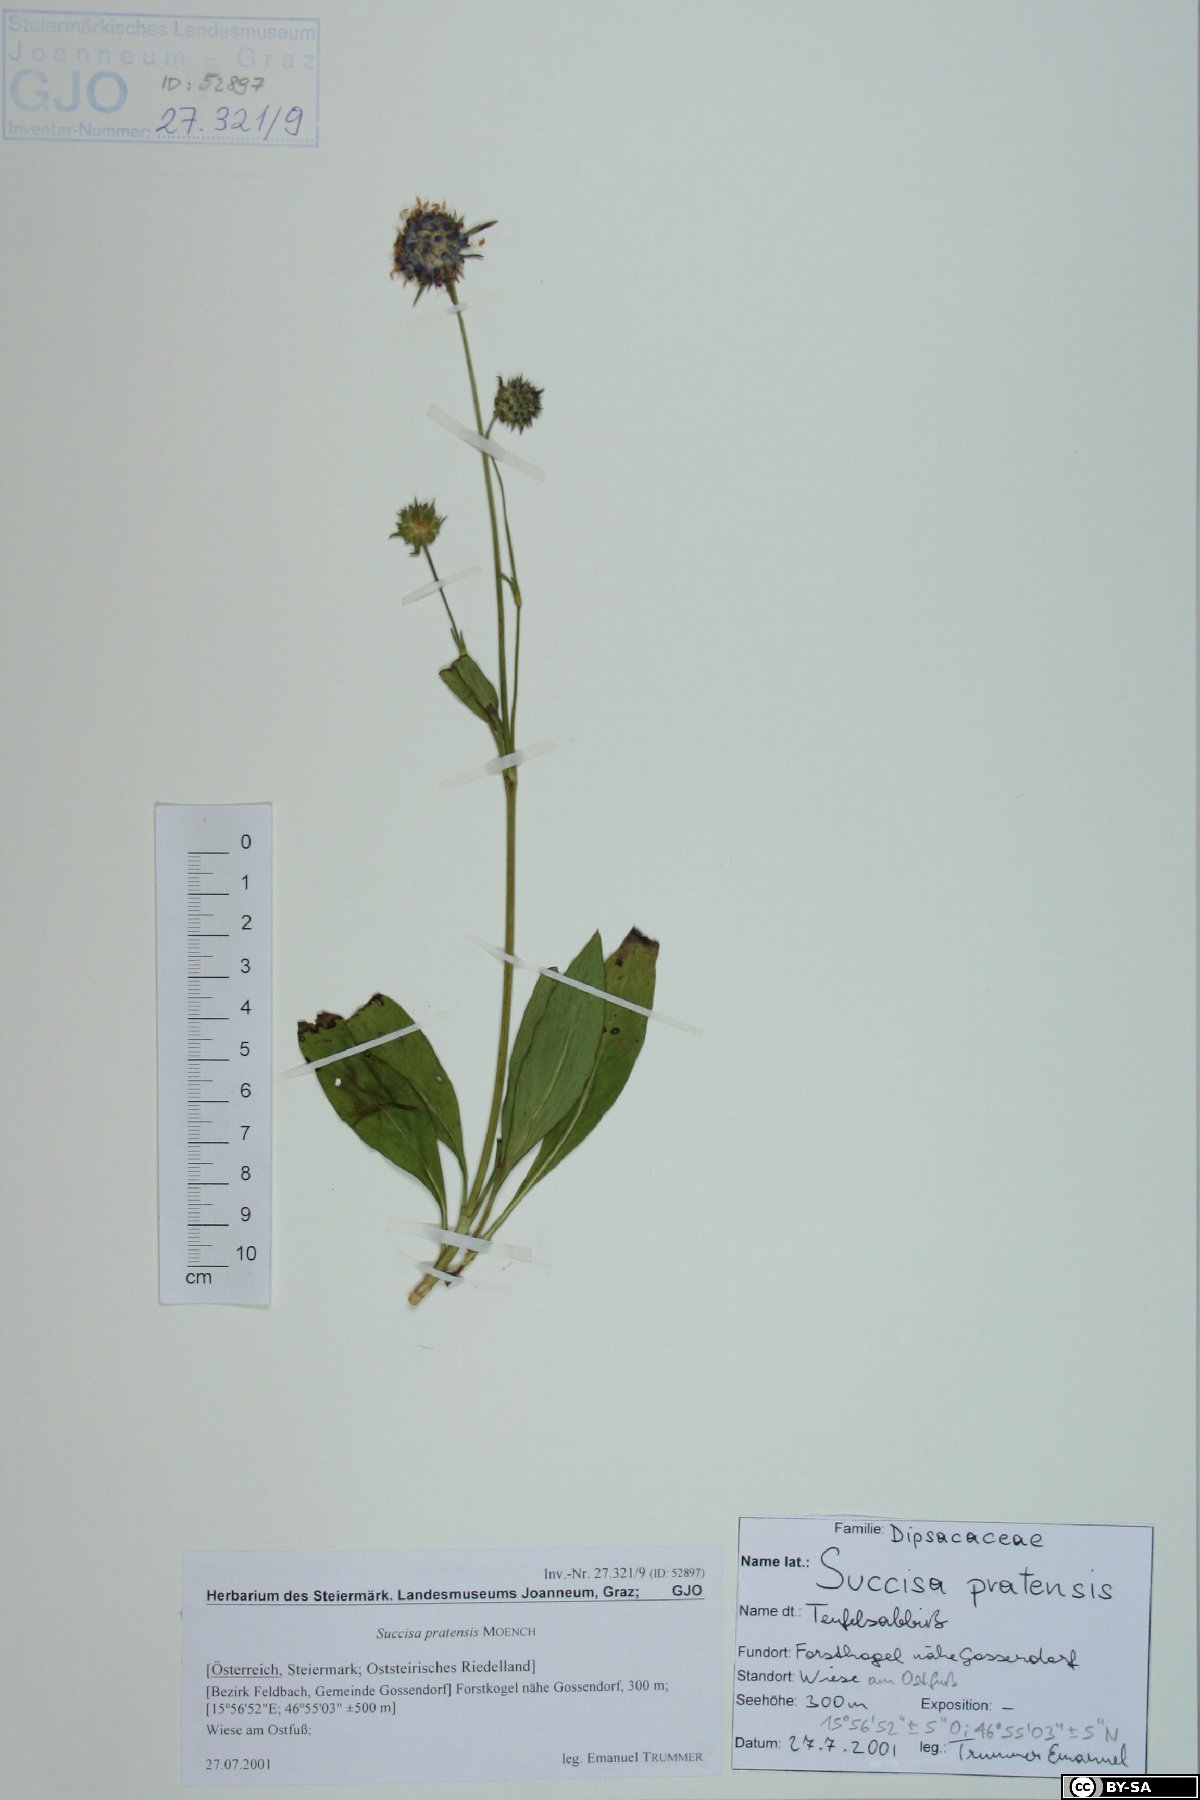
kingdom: Plantae
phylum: Tracheophyta
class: Magnoliopsida
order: Dipsacales
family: Caprifoliaceae
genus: Succisa
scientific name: Succisa pratensis
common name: Devil's-bit
